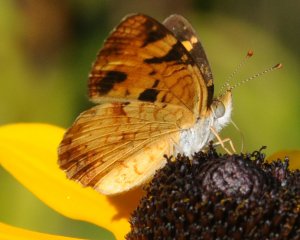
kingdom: Animalia
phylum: Arthropoda
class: Insecta
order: Lepidoptera
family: Nymphalidae
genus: Phyciodes
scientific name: Phyciodes tharos
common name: Northern Crescent
